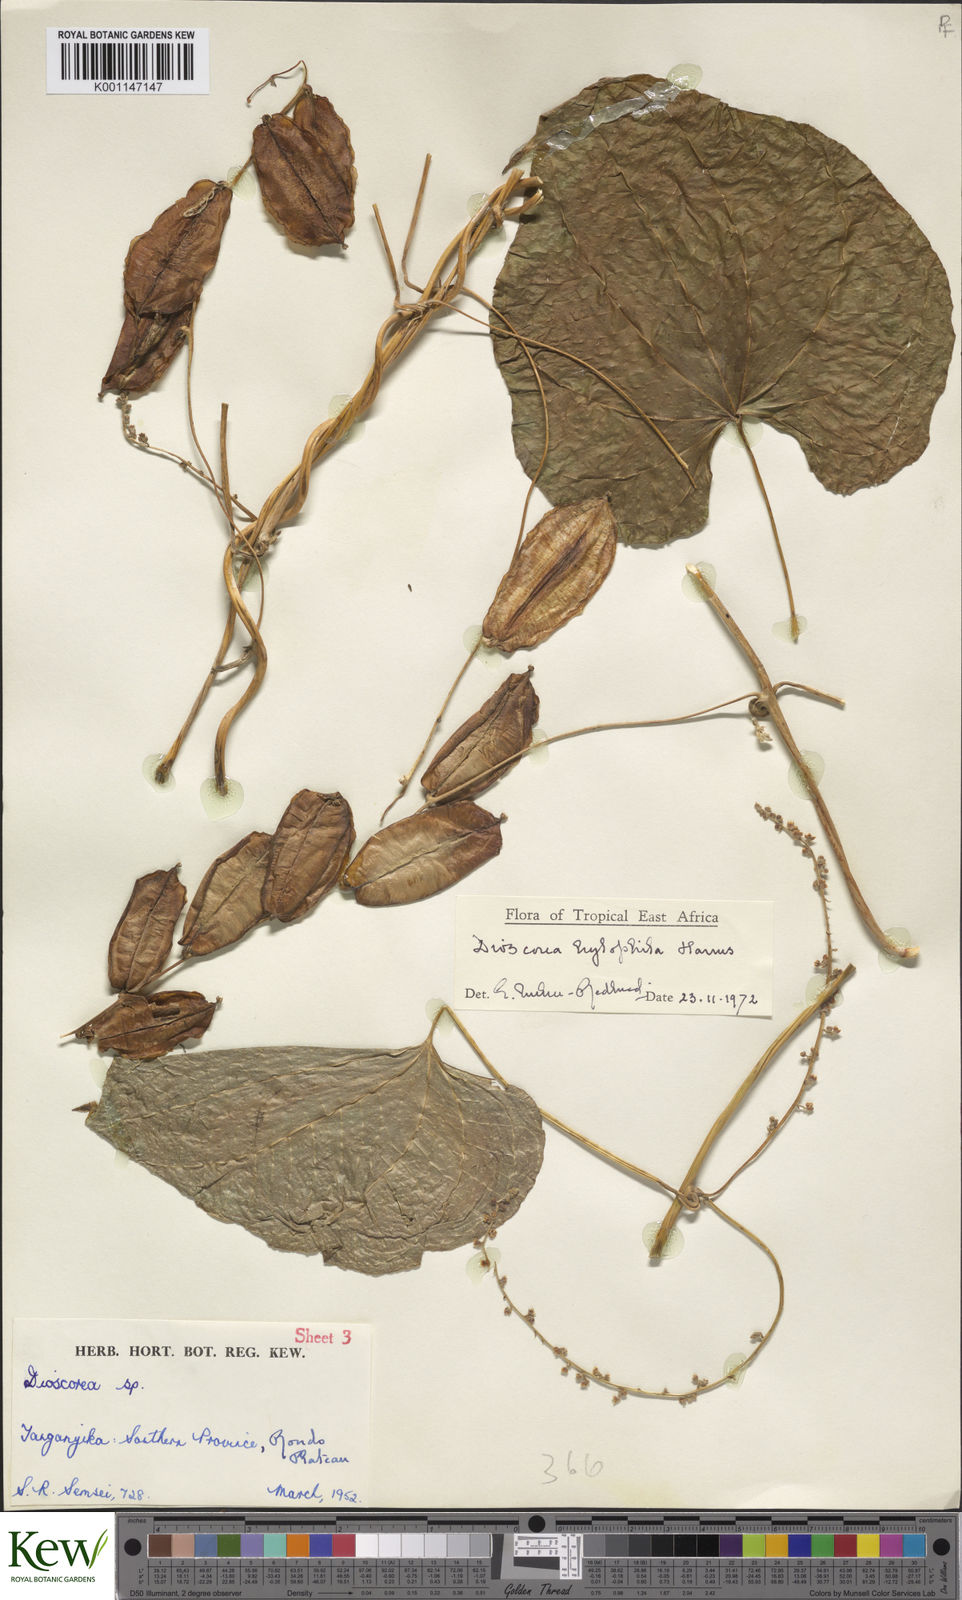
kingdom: Plantae
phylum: Tracheophyta
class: Liliopsida
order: Dioscoreales
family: Dioscoreaceae
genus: Dioscorea
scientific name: Dioscorea
